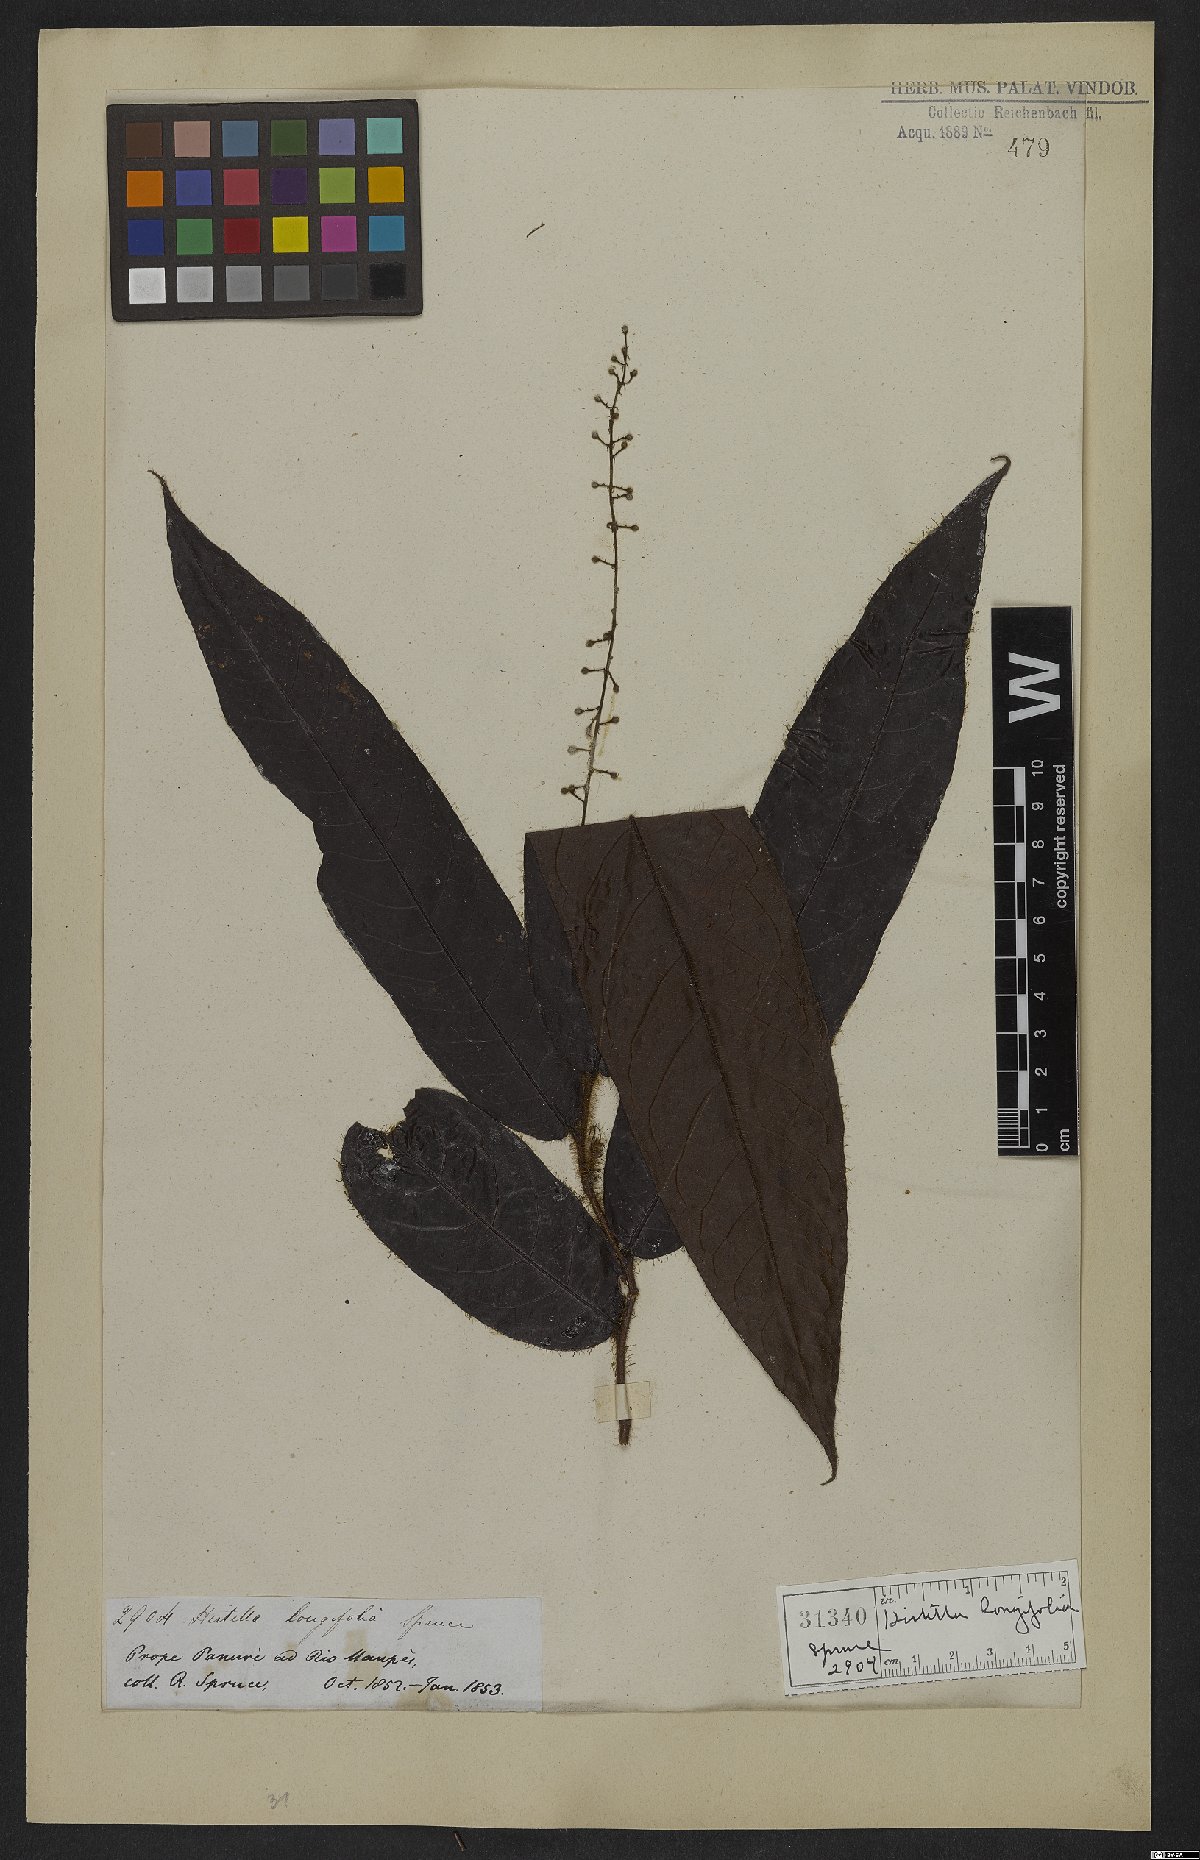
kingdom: Plantae
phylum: Tracheophyta
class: Magnoliopsida
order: Malpighiales
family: Chrysobalanaceae
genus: Hirtella
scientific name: Hirtella longifolia
